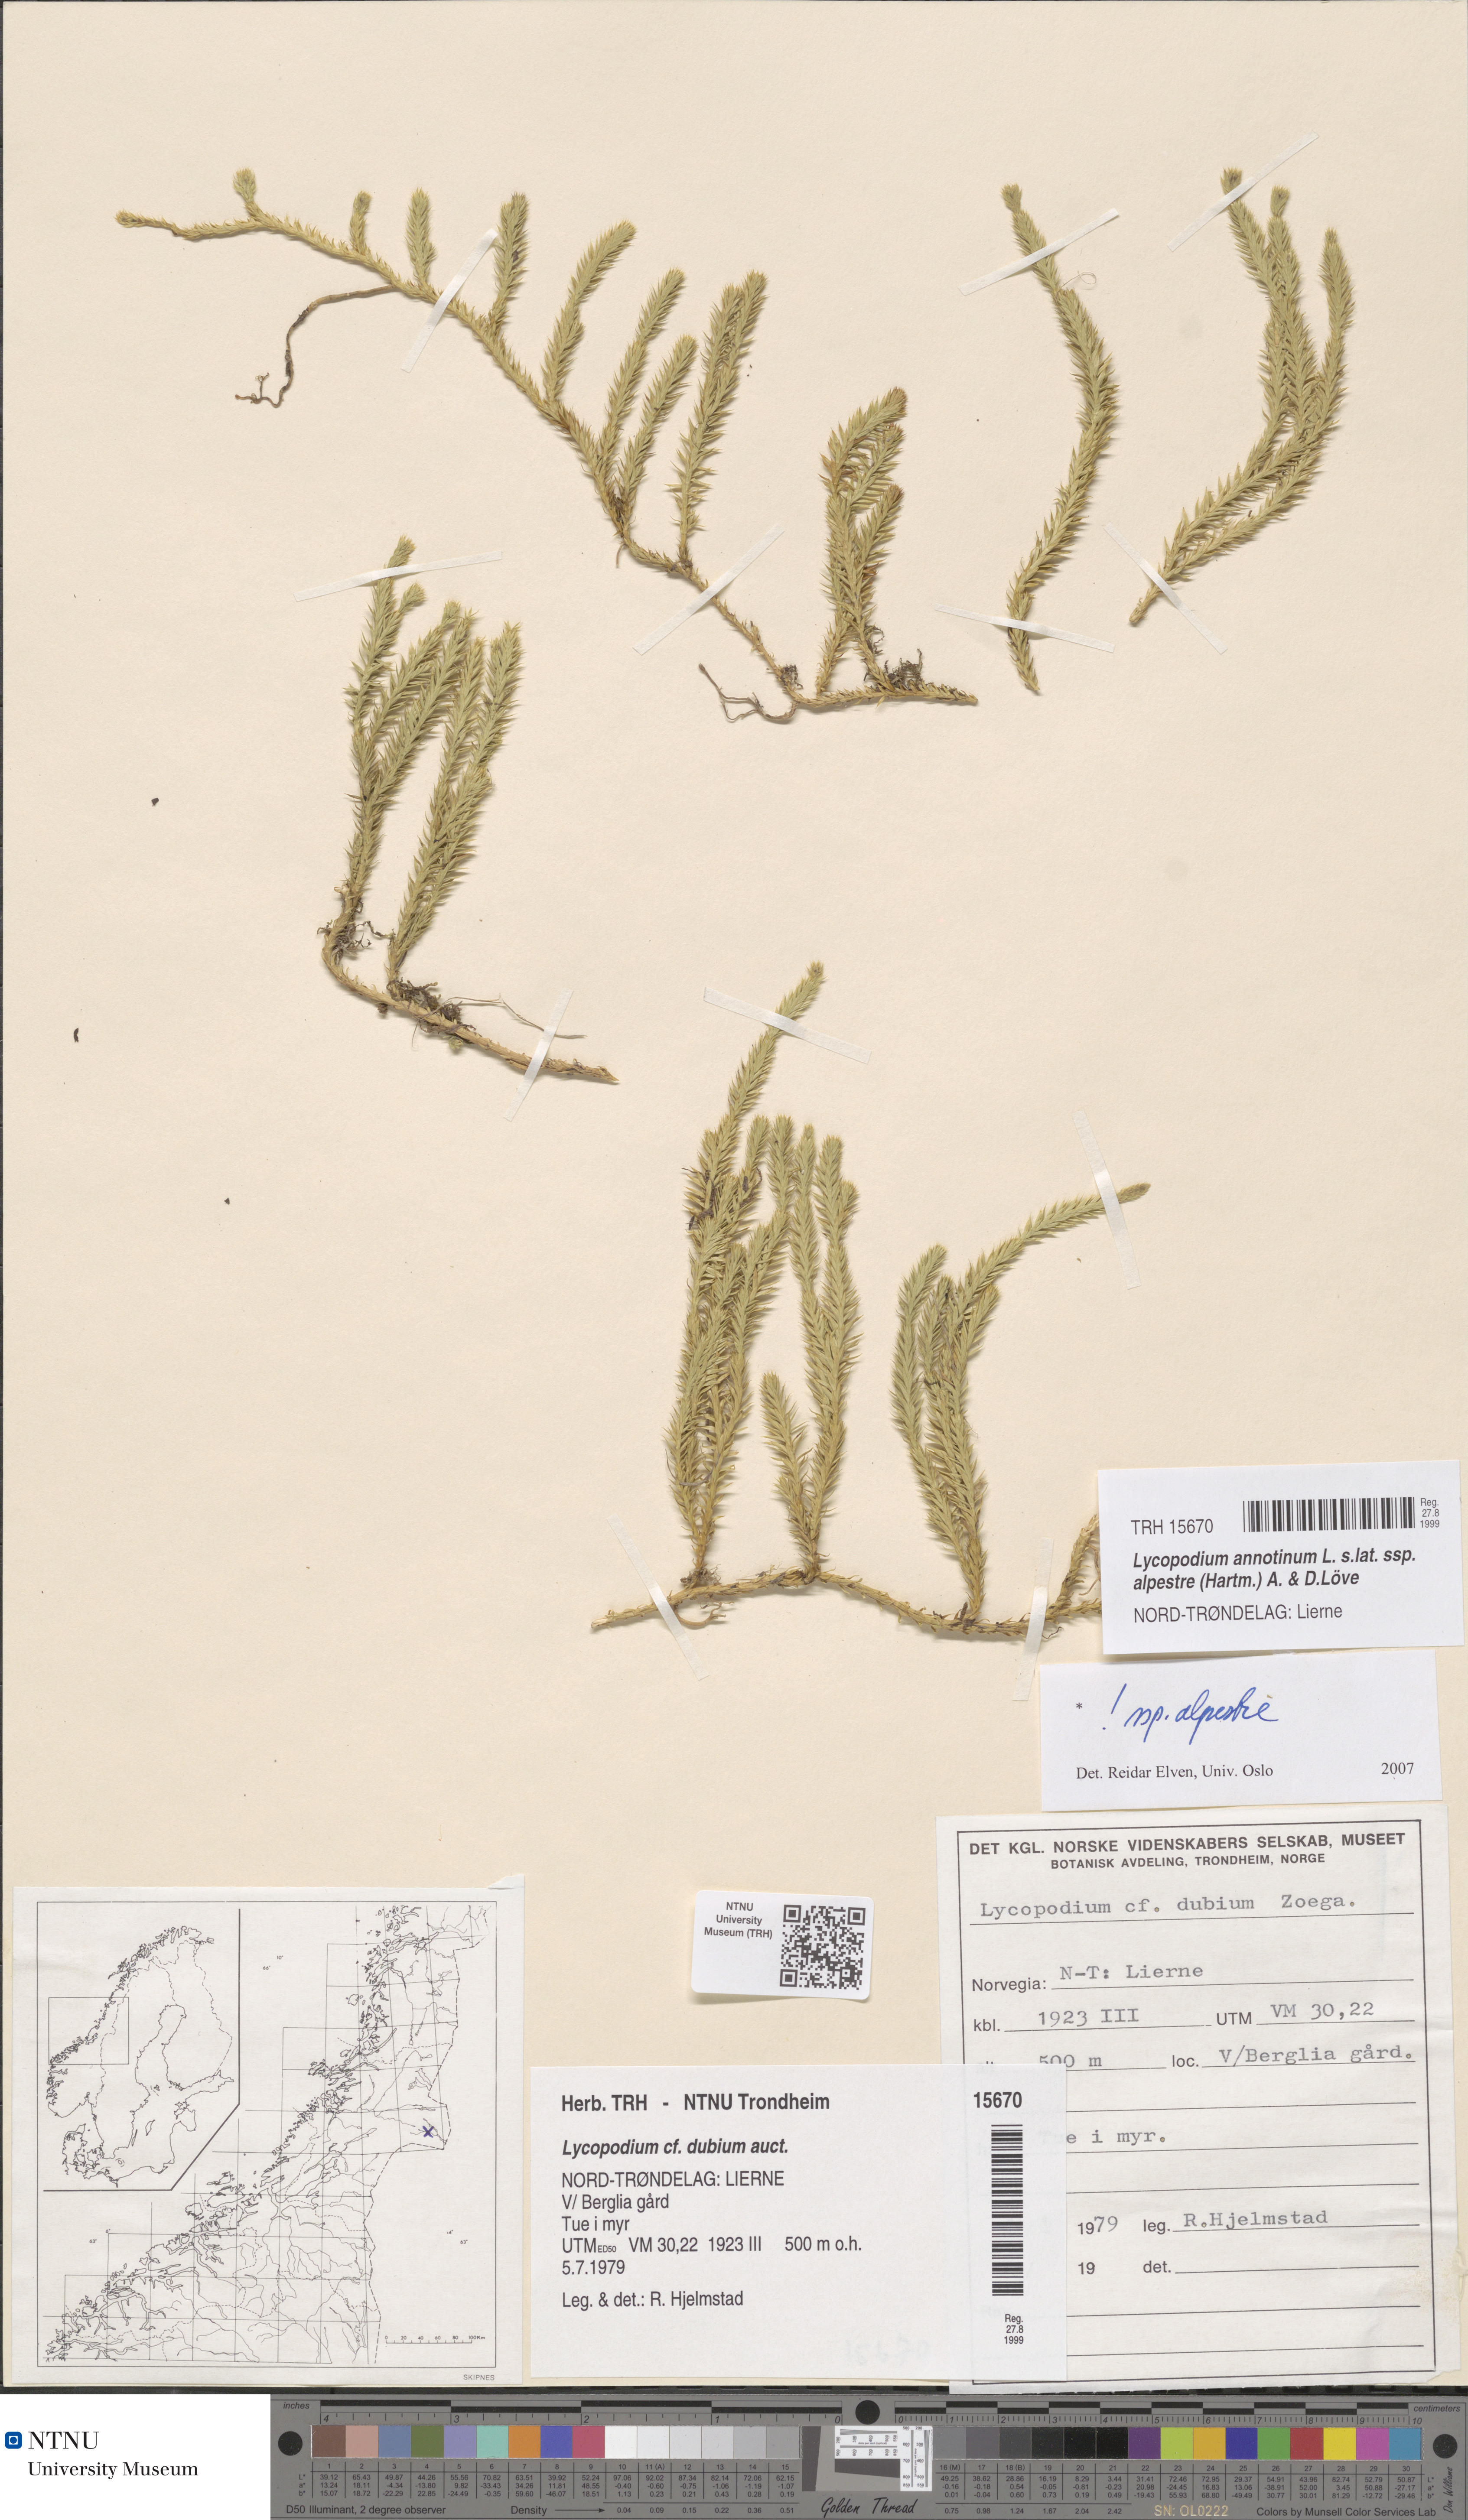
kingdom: Plantae
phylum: Tracheophyta
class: Lycopodiopsida
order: Lycopodiales
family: Lycopodiaceae
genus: Spinulum
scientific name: Spinulum annotinum
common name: Interrupted club-moss
